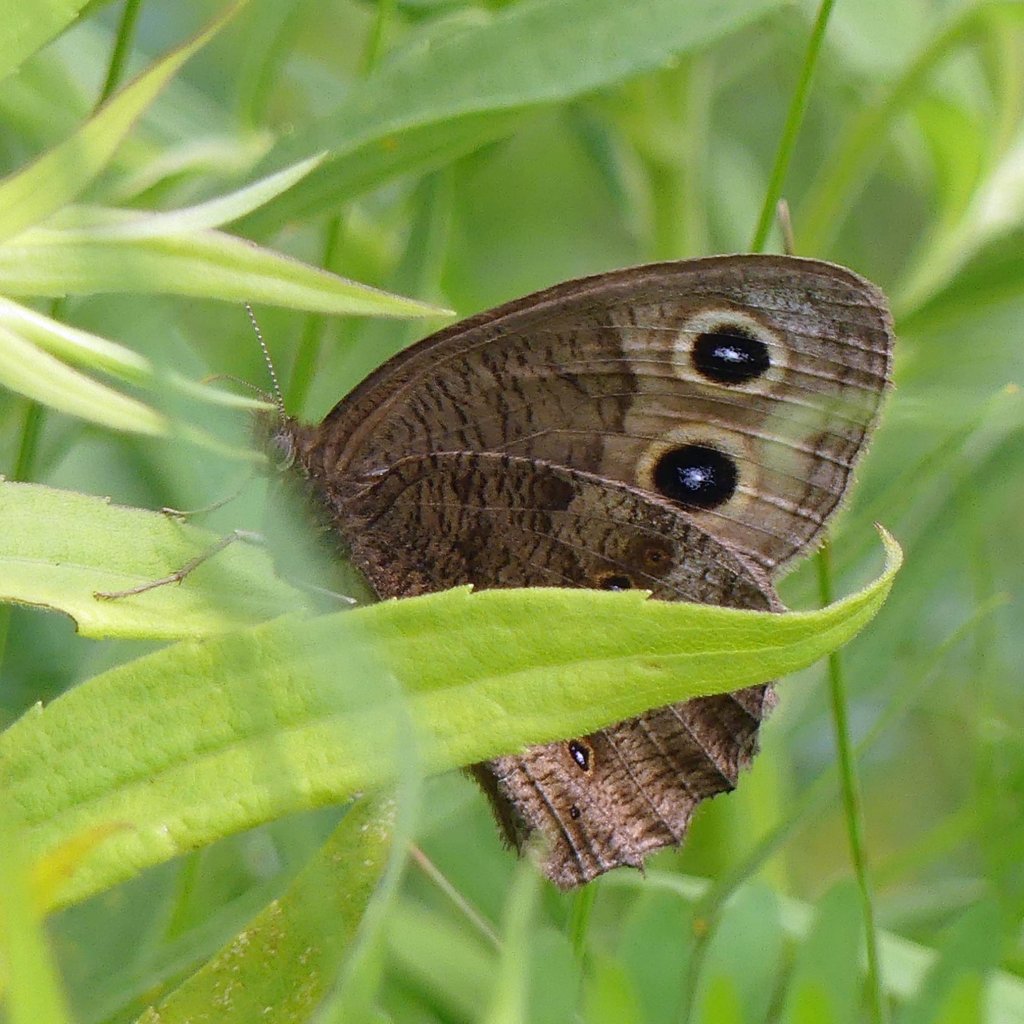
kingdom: Animalia
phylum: Arthropoda
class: Insecta
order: Lepidoptera
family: Nymphalidae
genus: Cercyonis
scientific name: Cercyonis pegala
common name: Common Wood-Nymph
